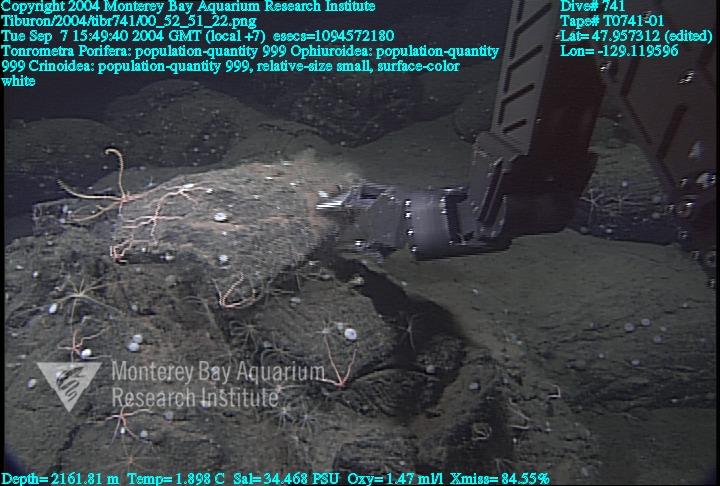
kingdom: Animalia
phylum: Porifera
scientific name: Porifera
